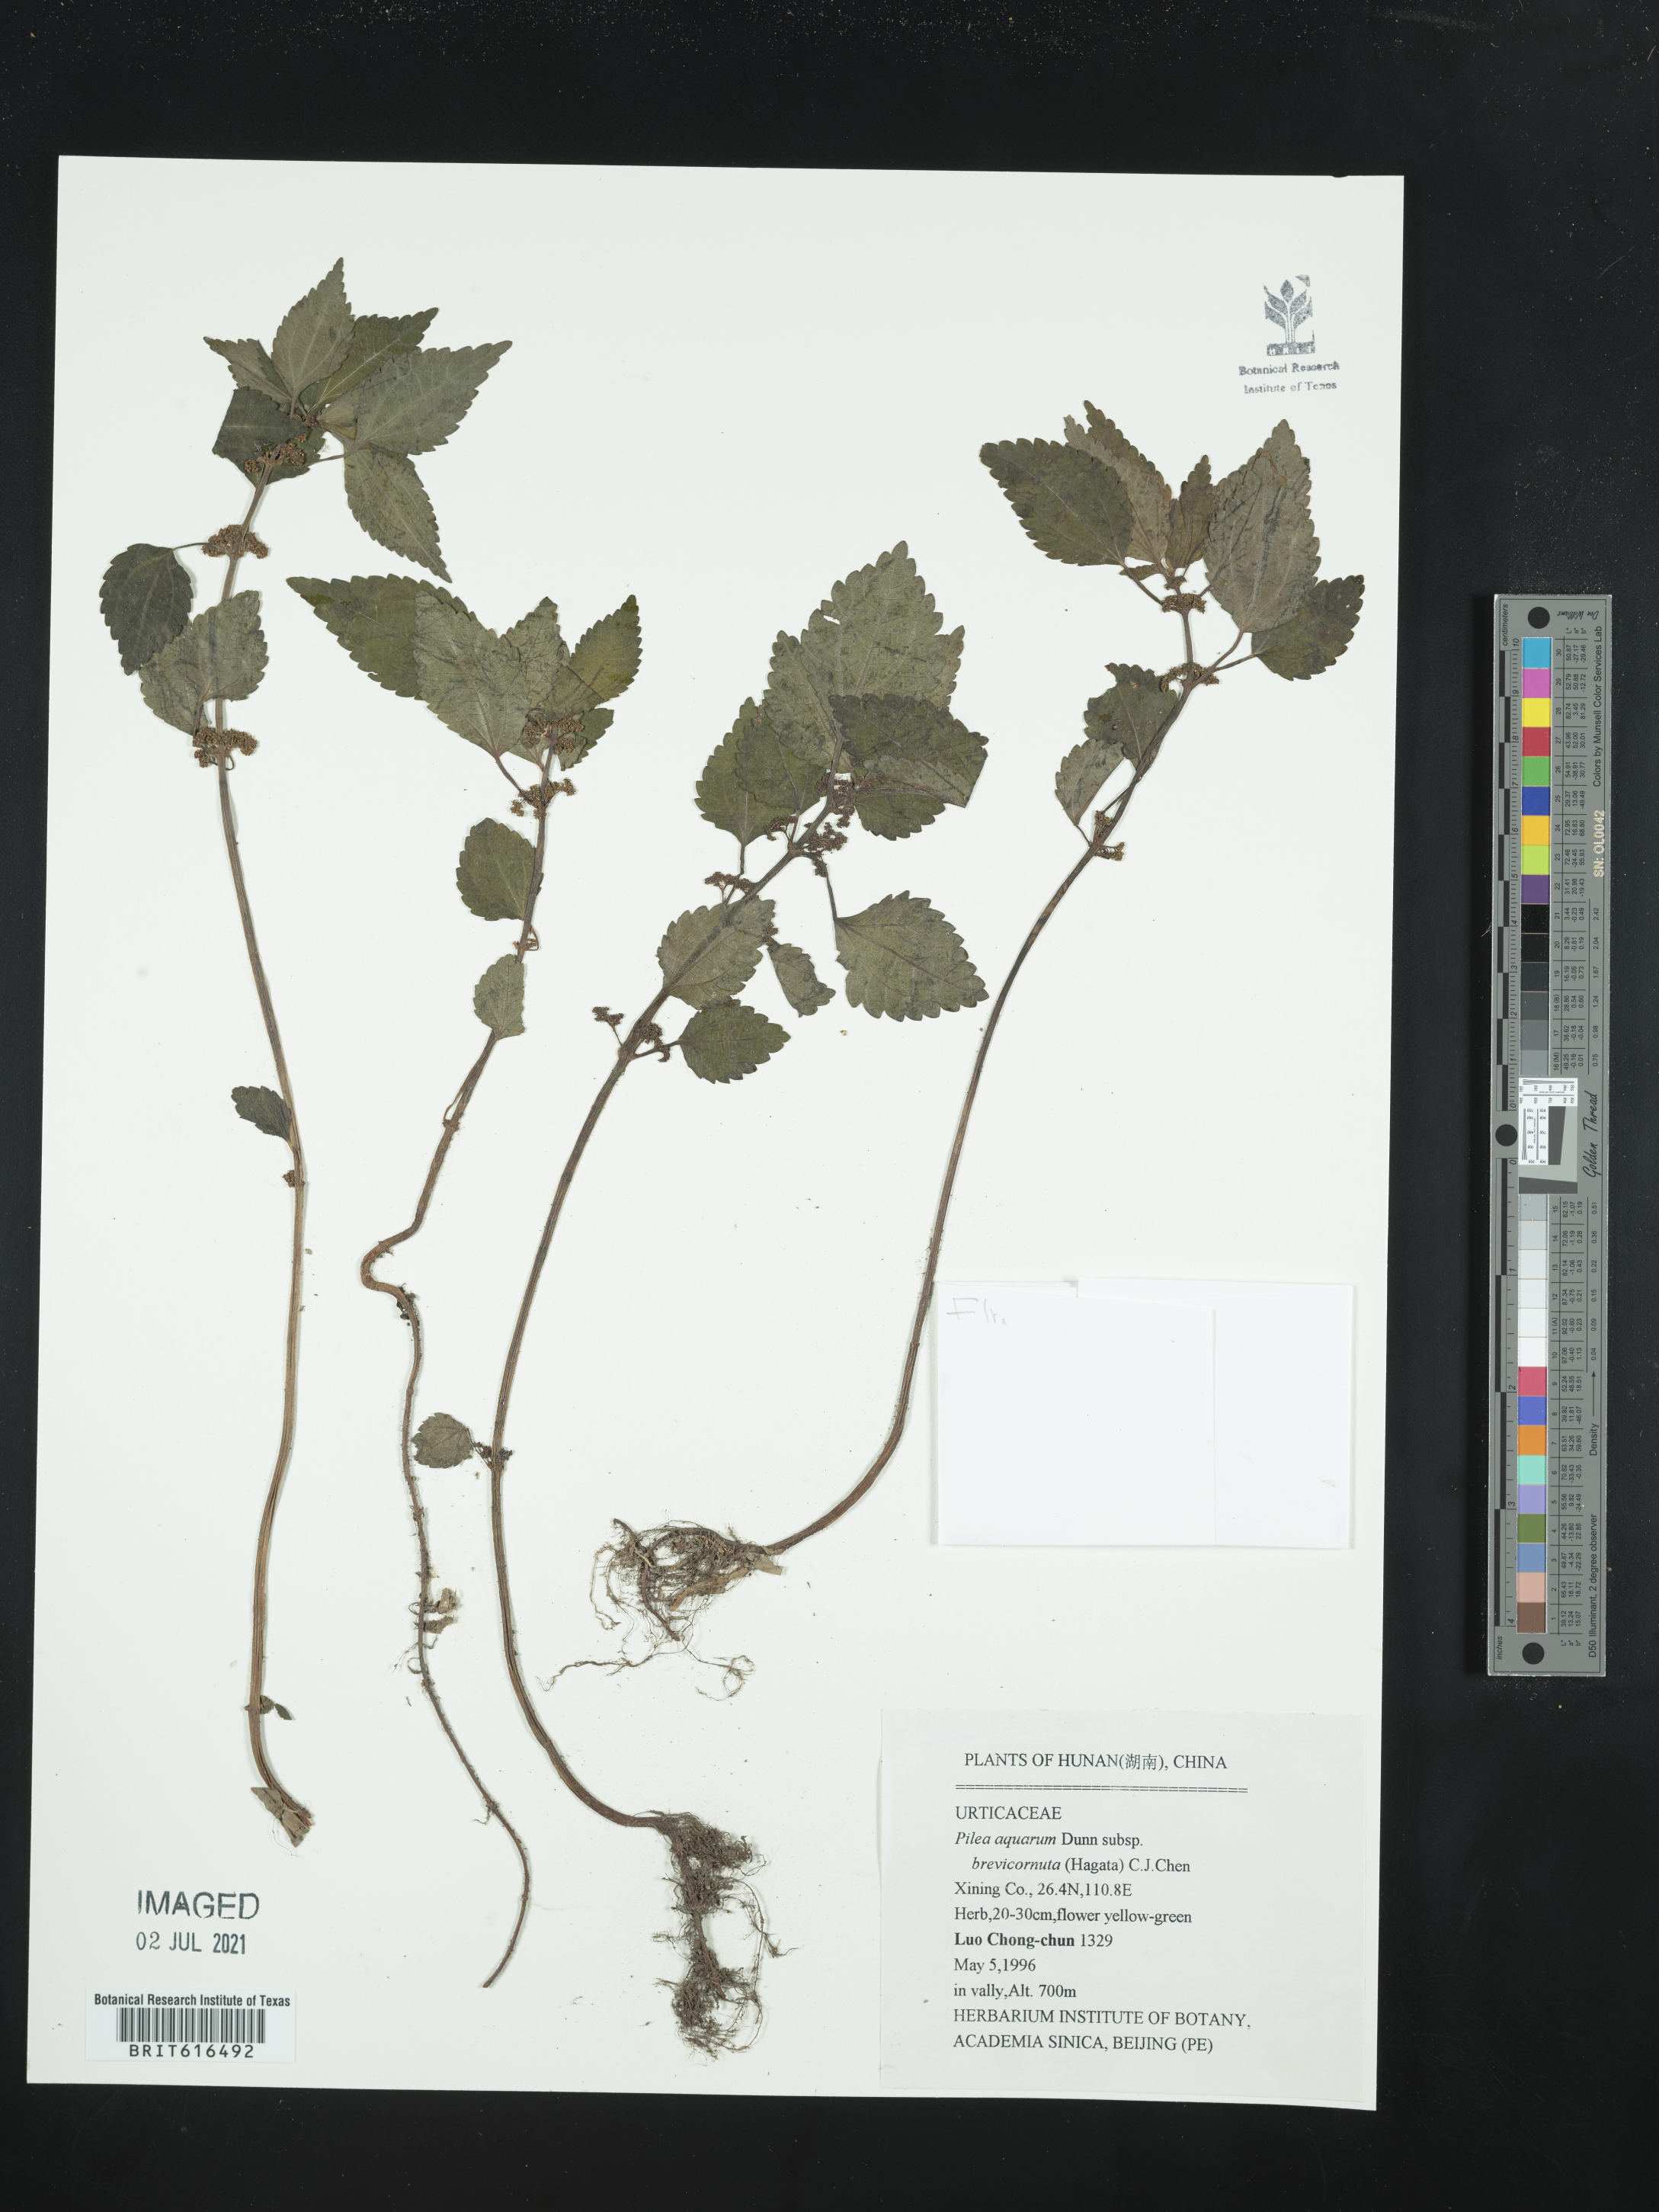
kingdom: Plantae
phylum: Tracheophyta
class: Magnoliopsida
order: Rosales
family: Urticaceae
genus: Pilea
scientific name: Pilea brevicornuta
